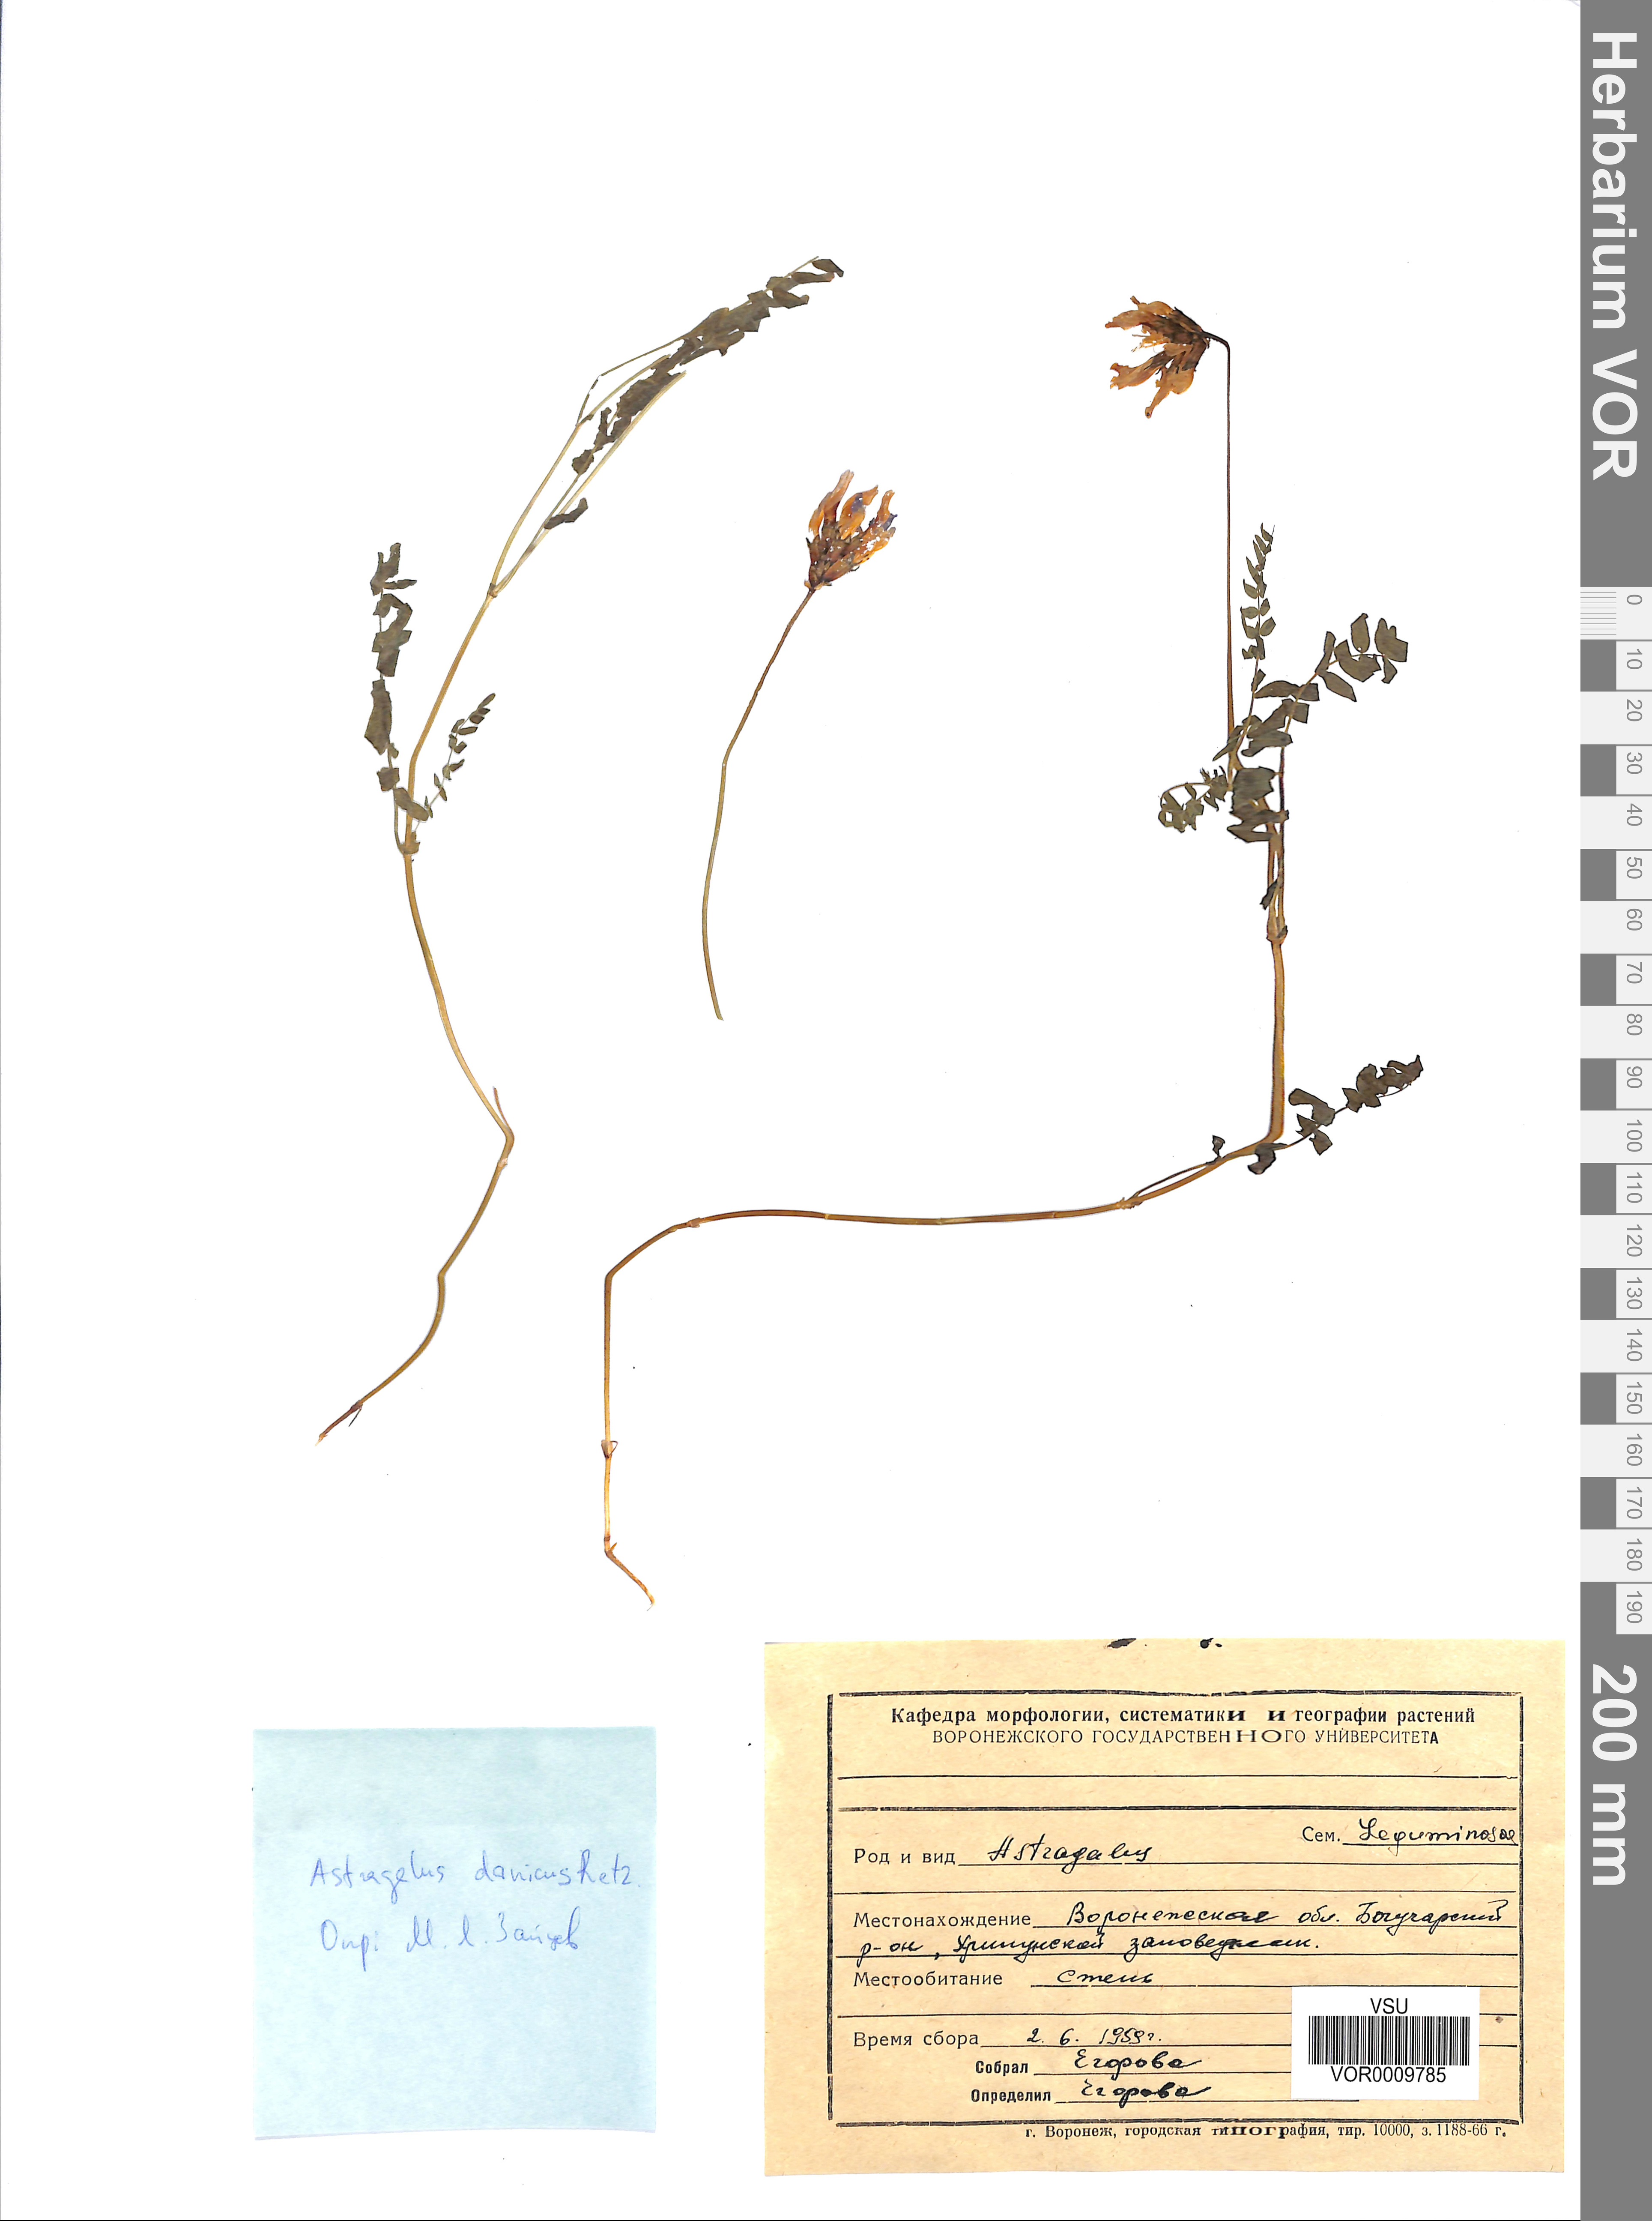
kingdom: Plantae
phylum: Tracheophyta
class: Magnoliopsida
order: Fabales
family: Fabaceae
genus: Astragalus
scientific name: Astragalus danicus
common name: Purple milk-vetch
